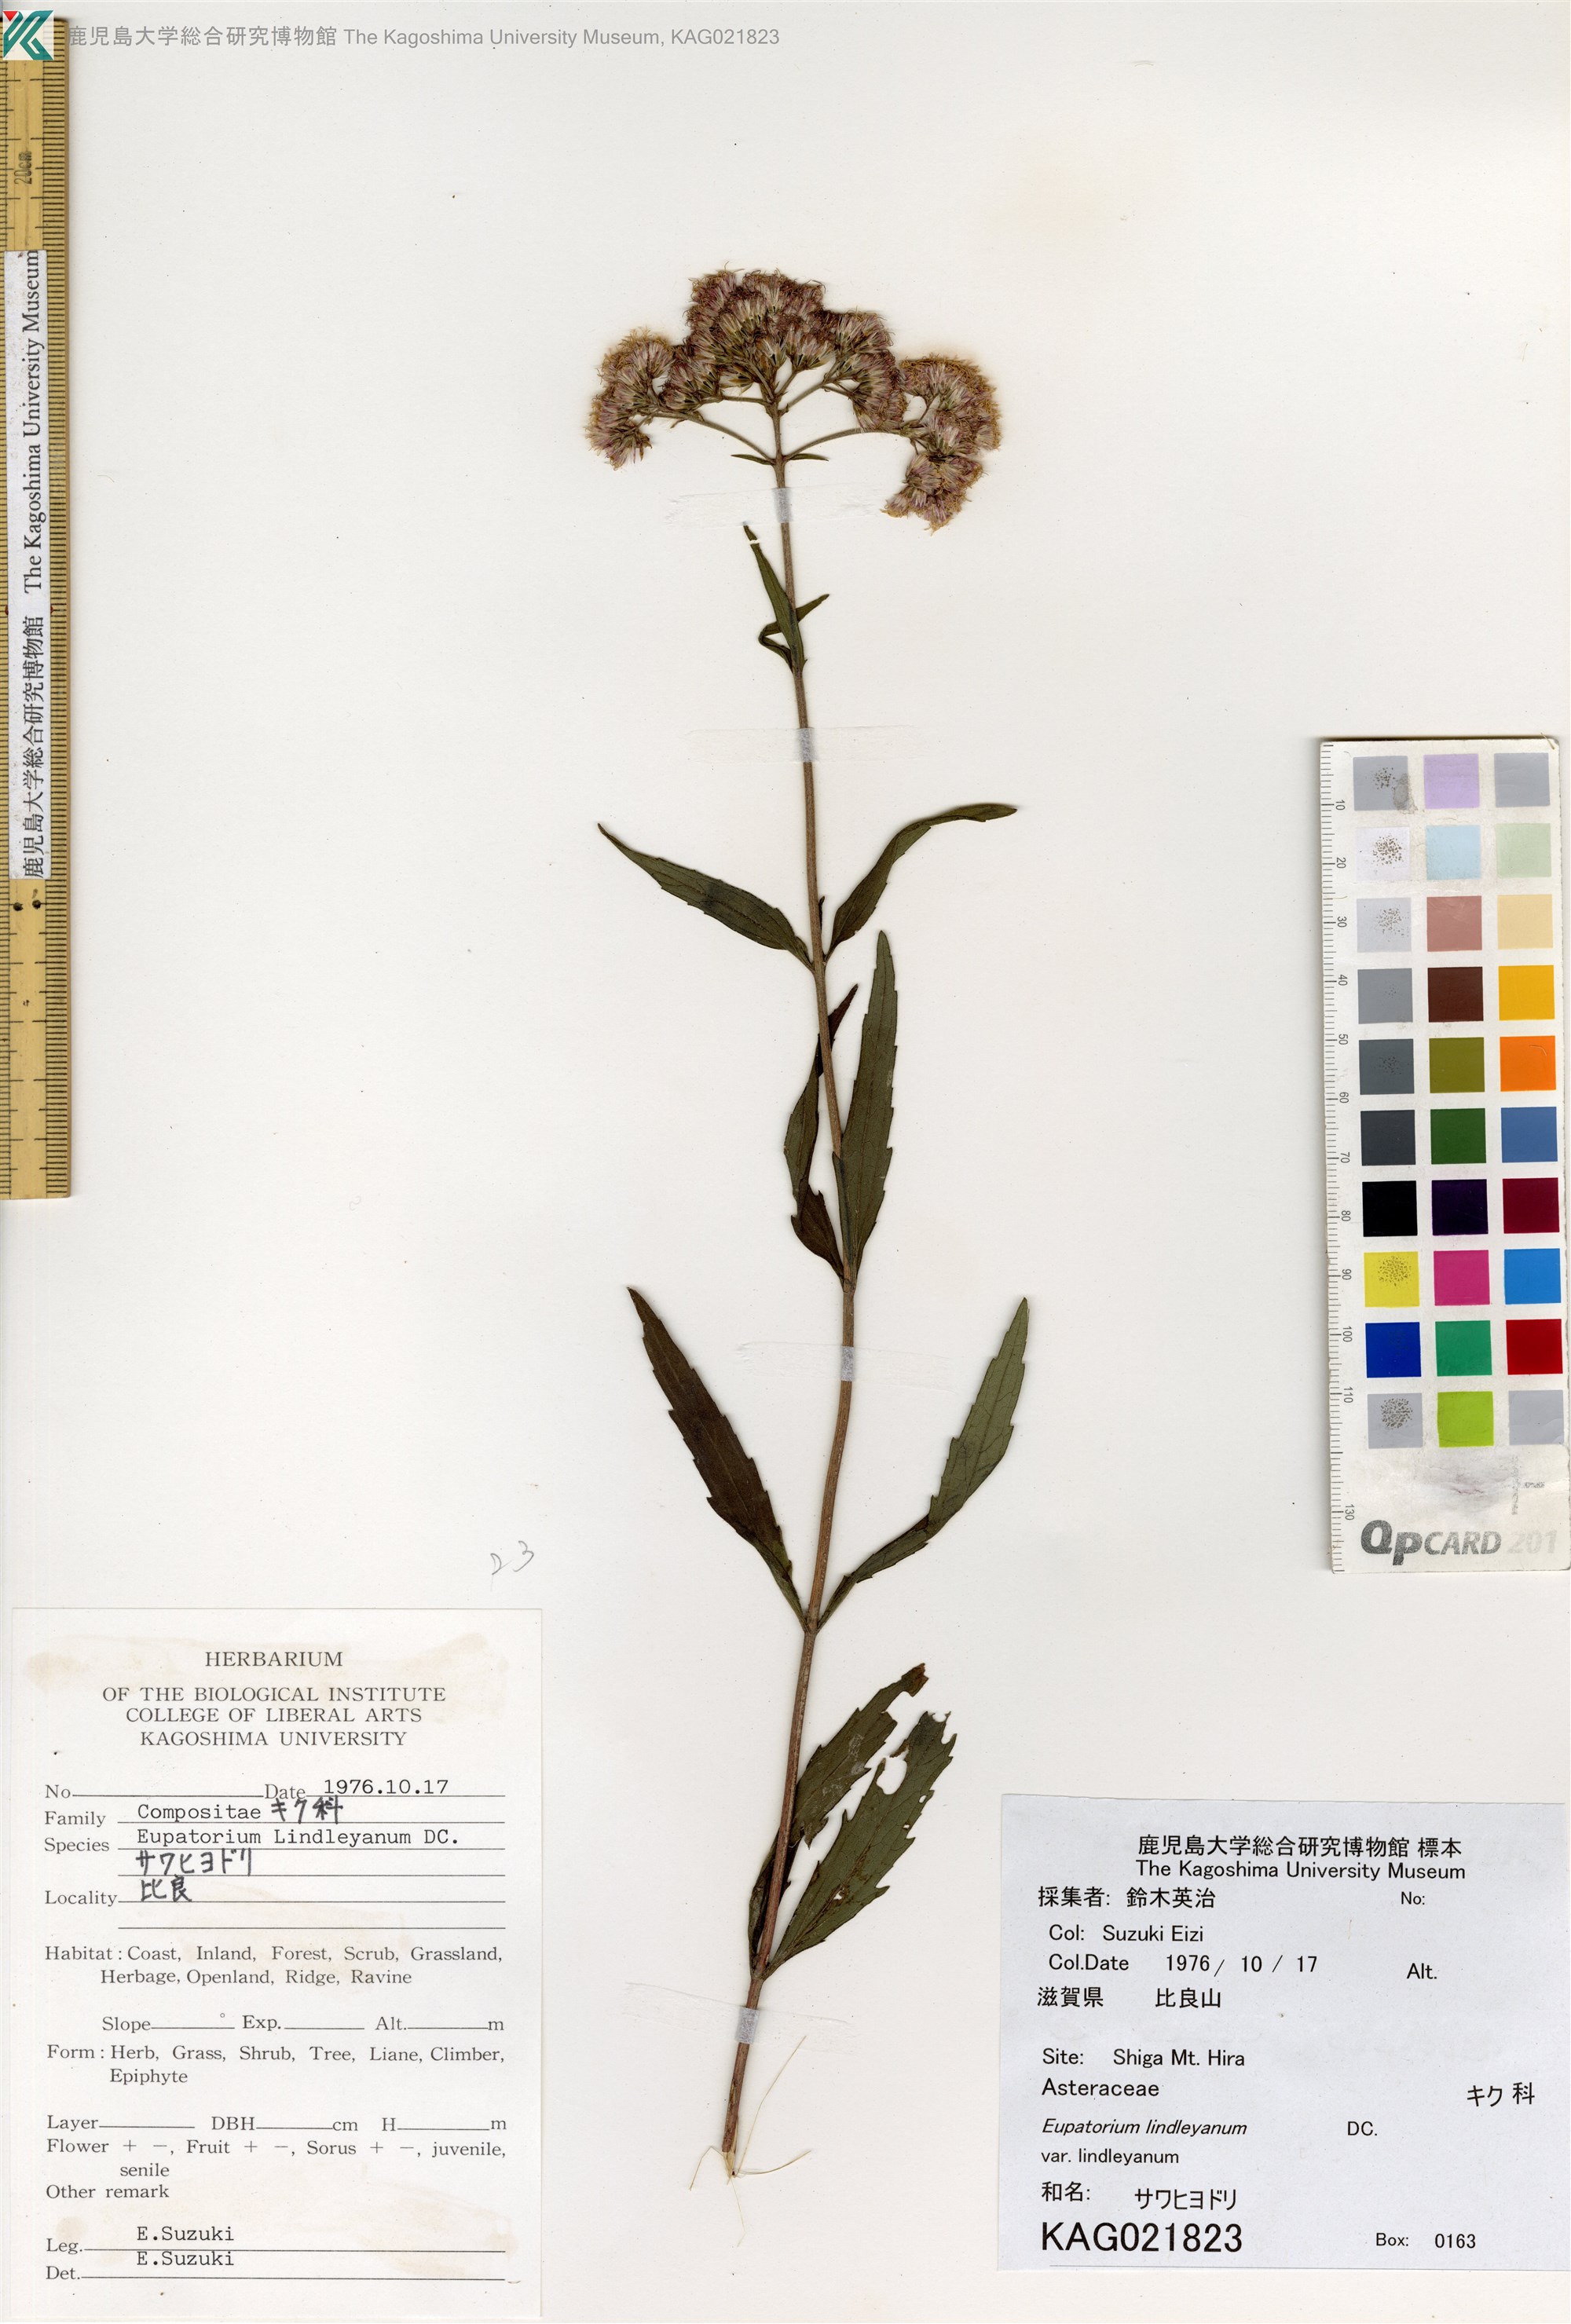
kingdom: Plantae
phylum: Tracheophyta
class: Magnoliopsida
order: Asterales
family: Asteraceae
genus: Eupatorium
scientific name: Eupatorium lindleyanum
